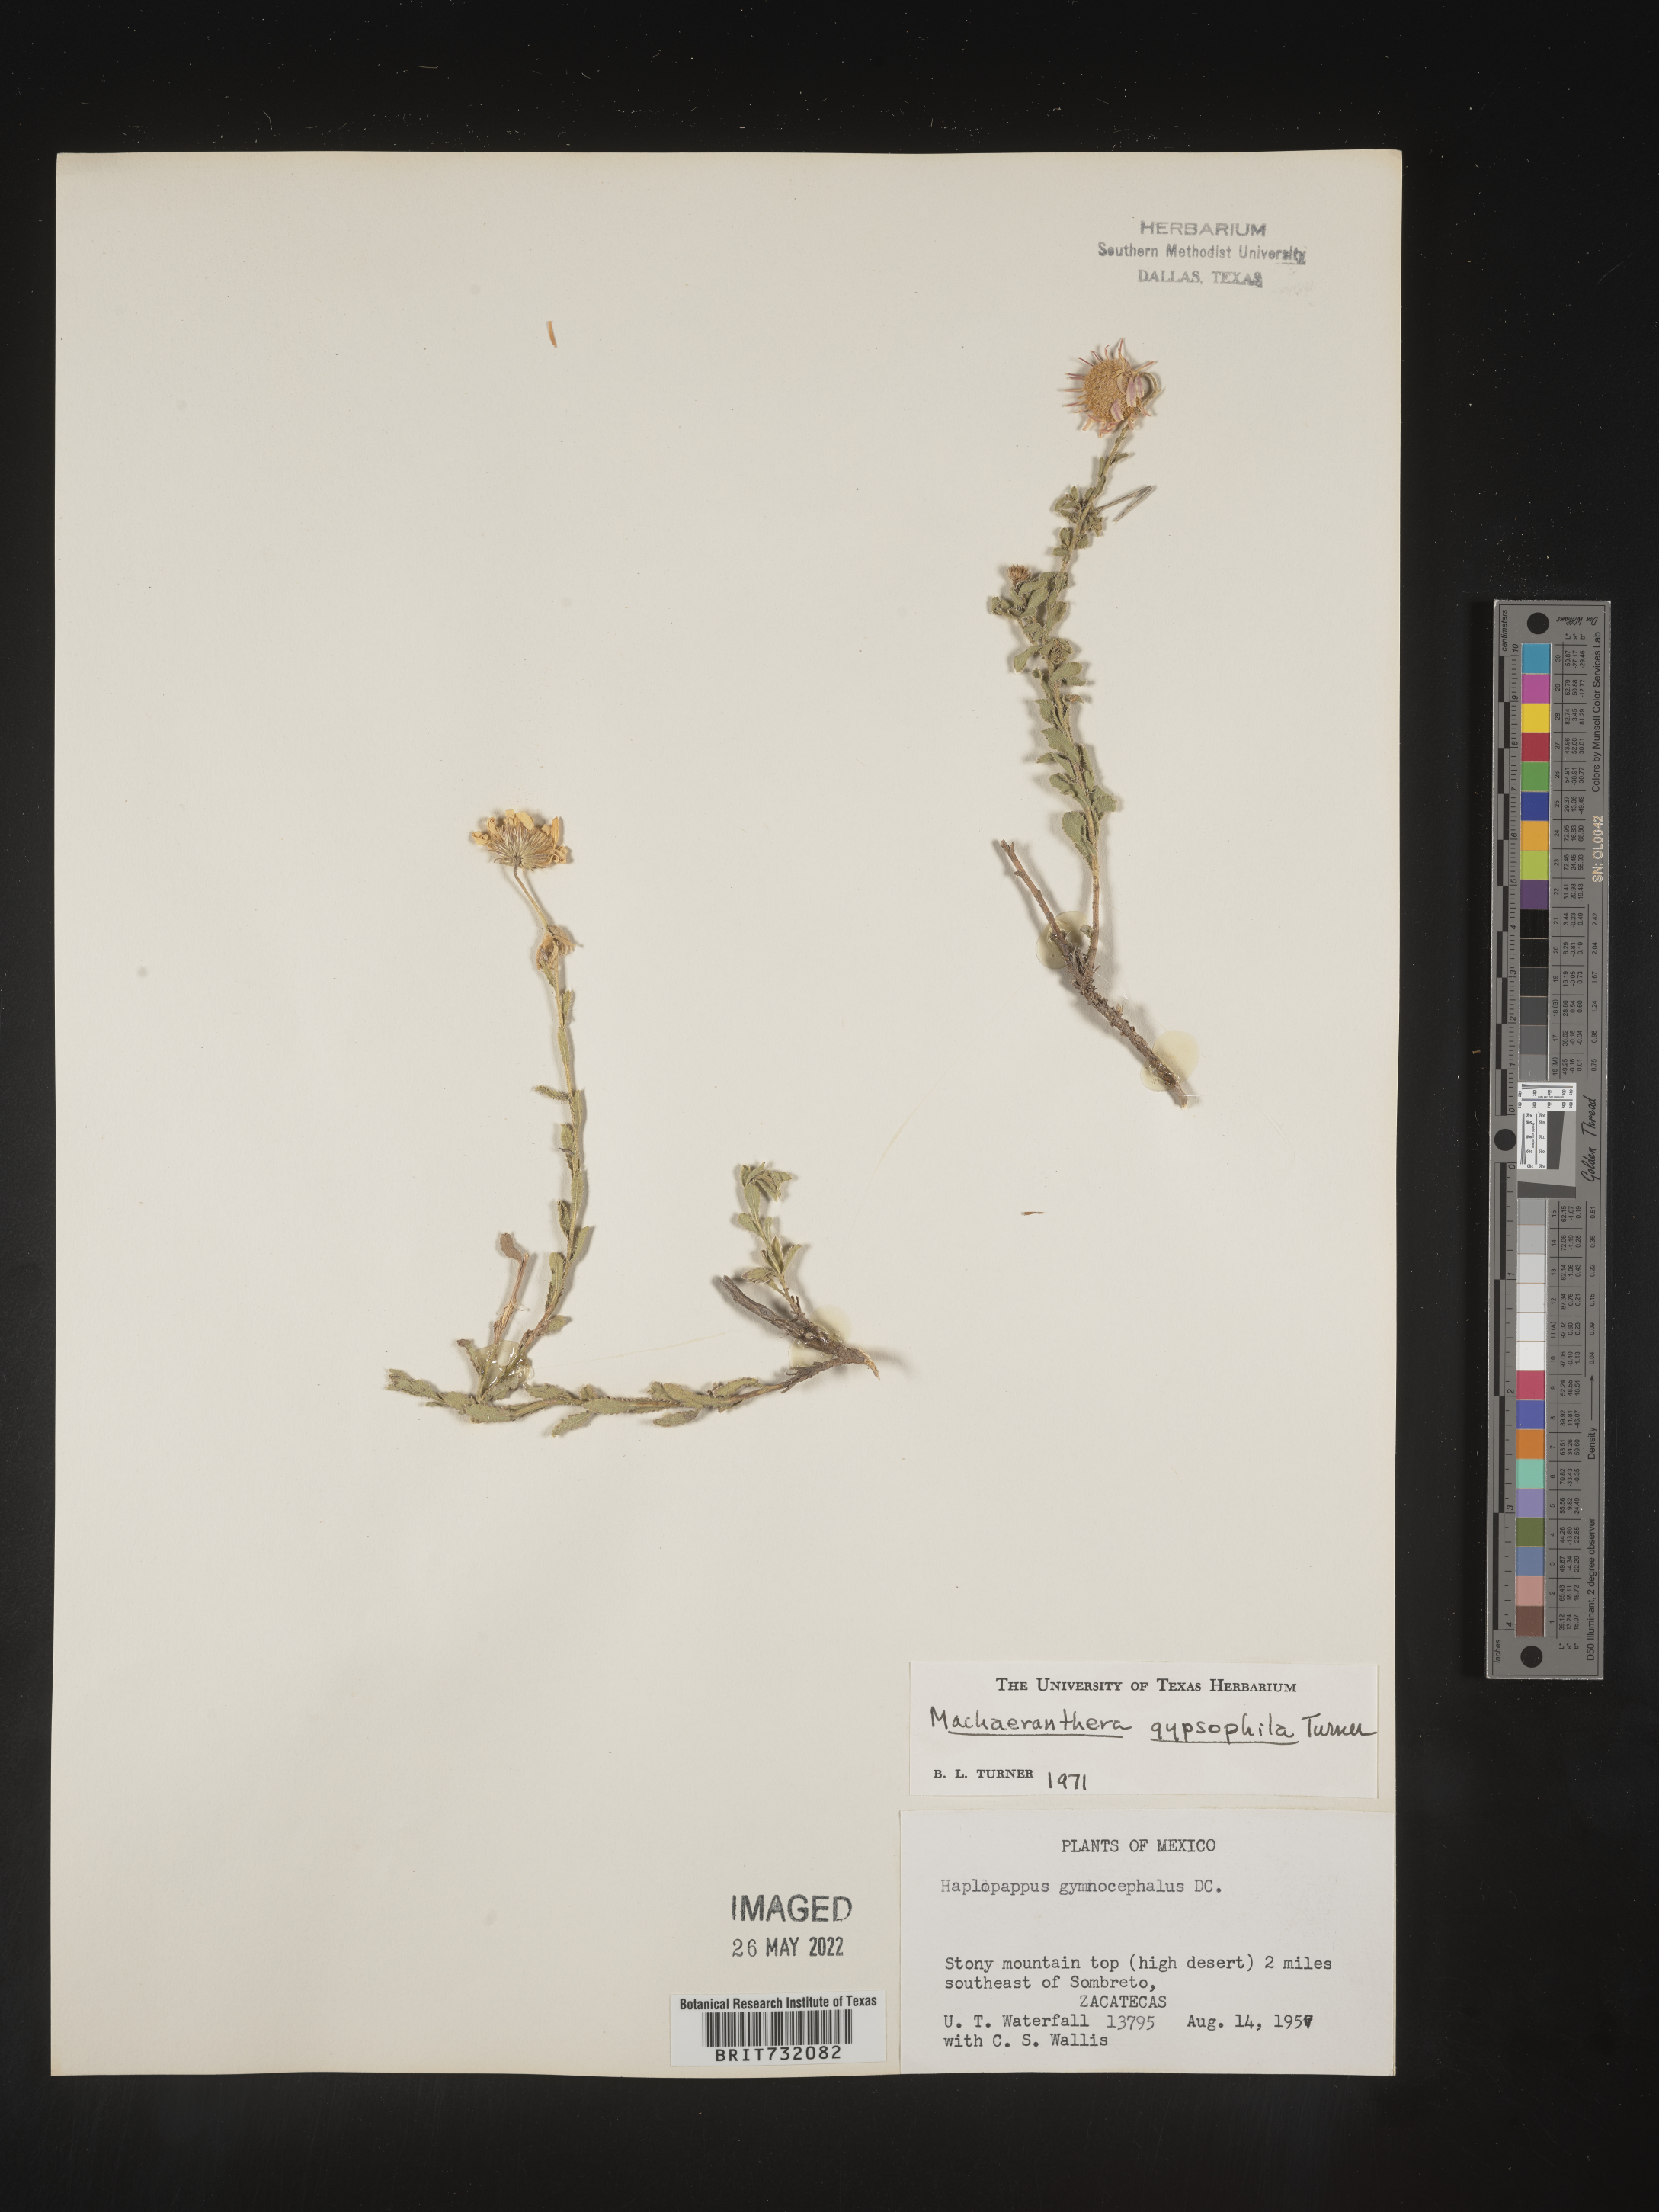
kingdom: Plantae
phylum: Tracheophyta
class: Magnoliopsida
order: Asterales
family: Asteraceae
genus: Xanthisma
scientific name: Xanthisma gypsophilum
